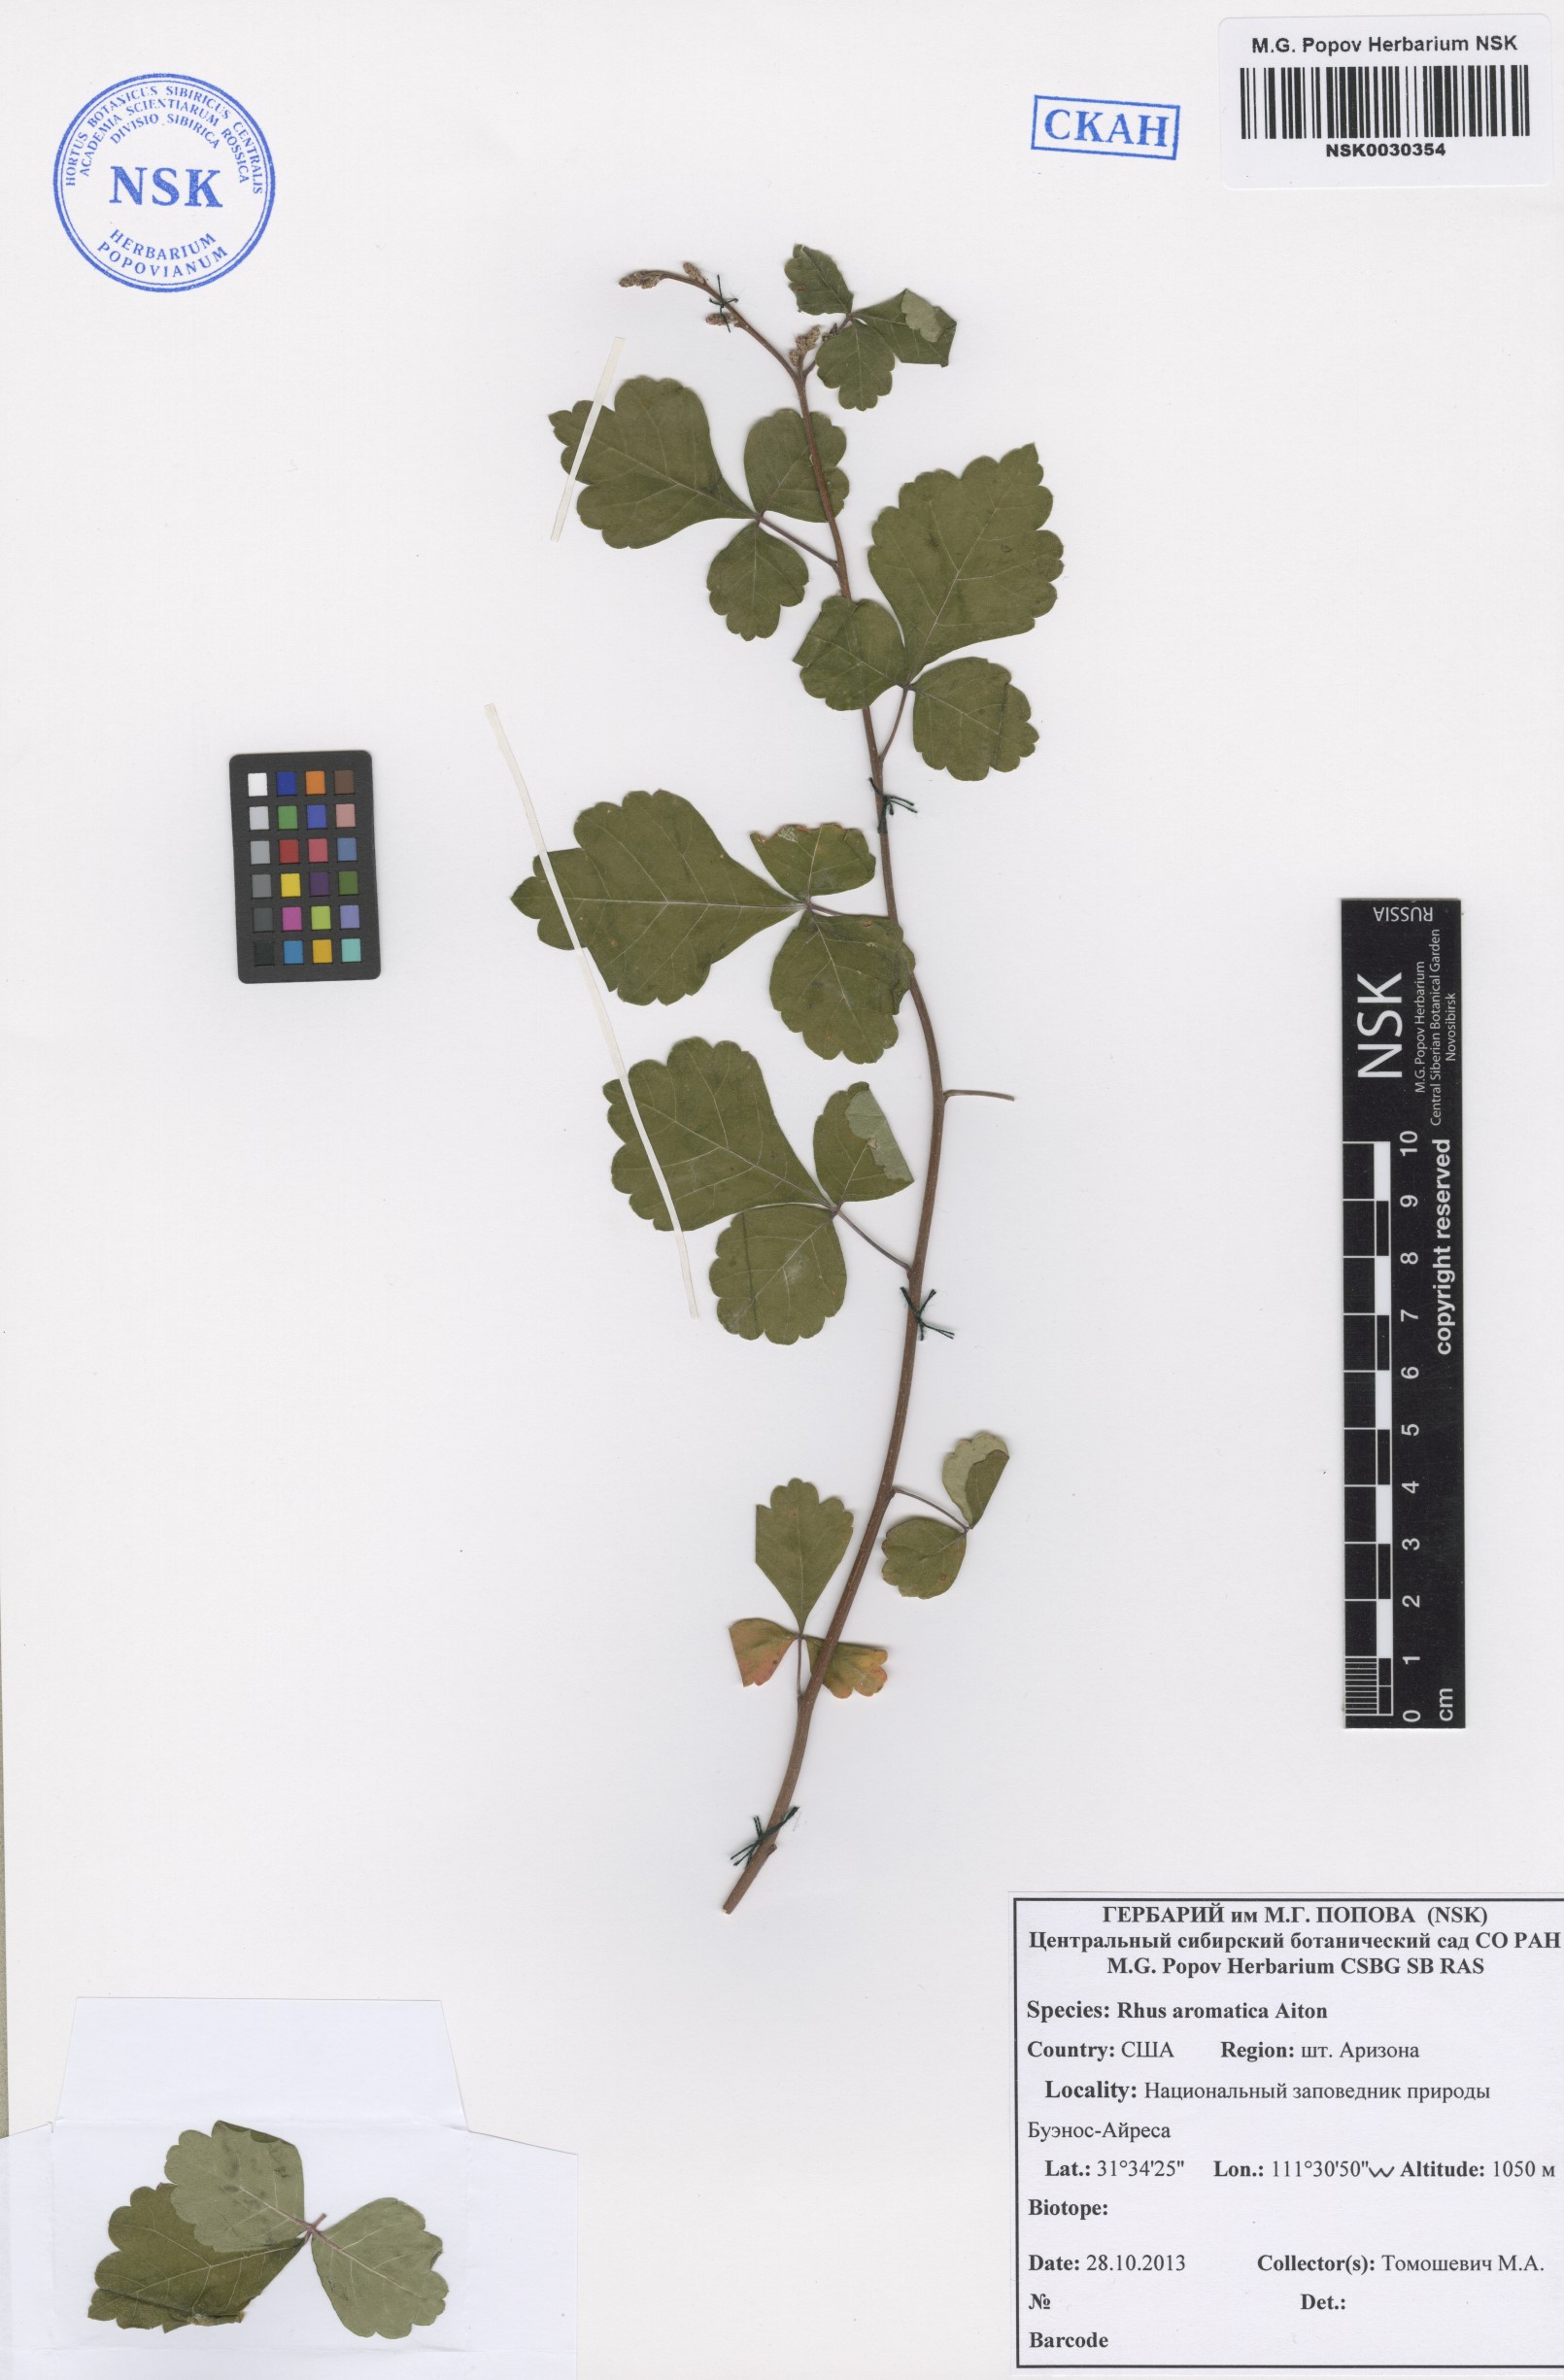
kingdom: Plantae
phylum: Tracheophyta
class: Magnoliopsida
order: Sapindales
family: Anacardiaceae
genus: Rhus
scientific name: Rhus aromatica
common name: Aromatic sumac
